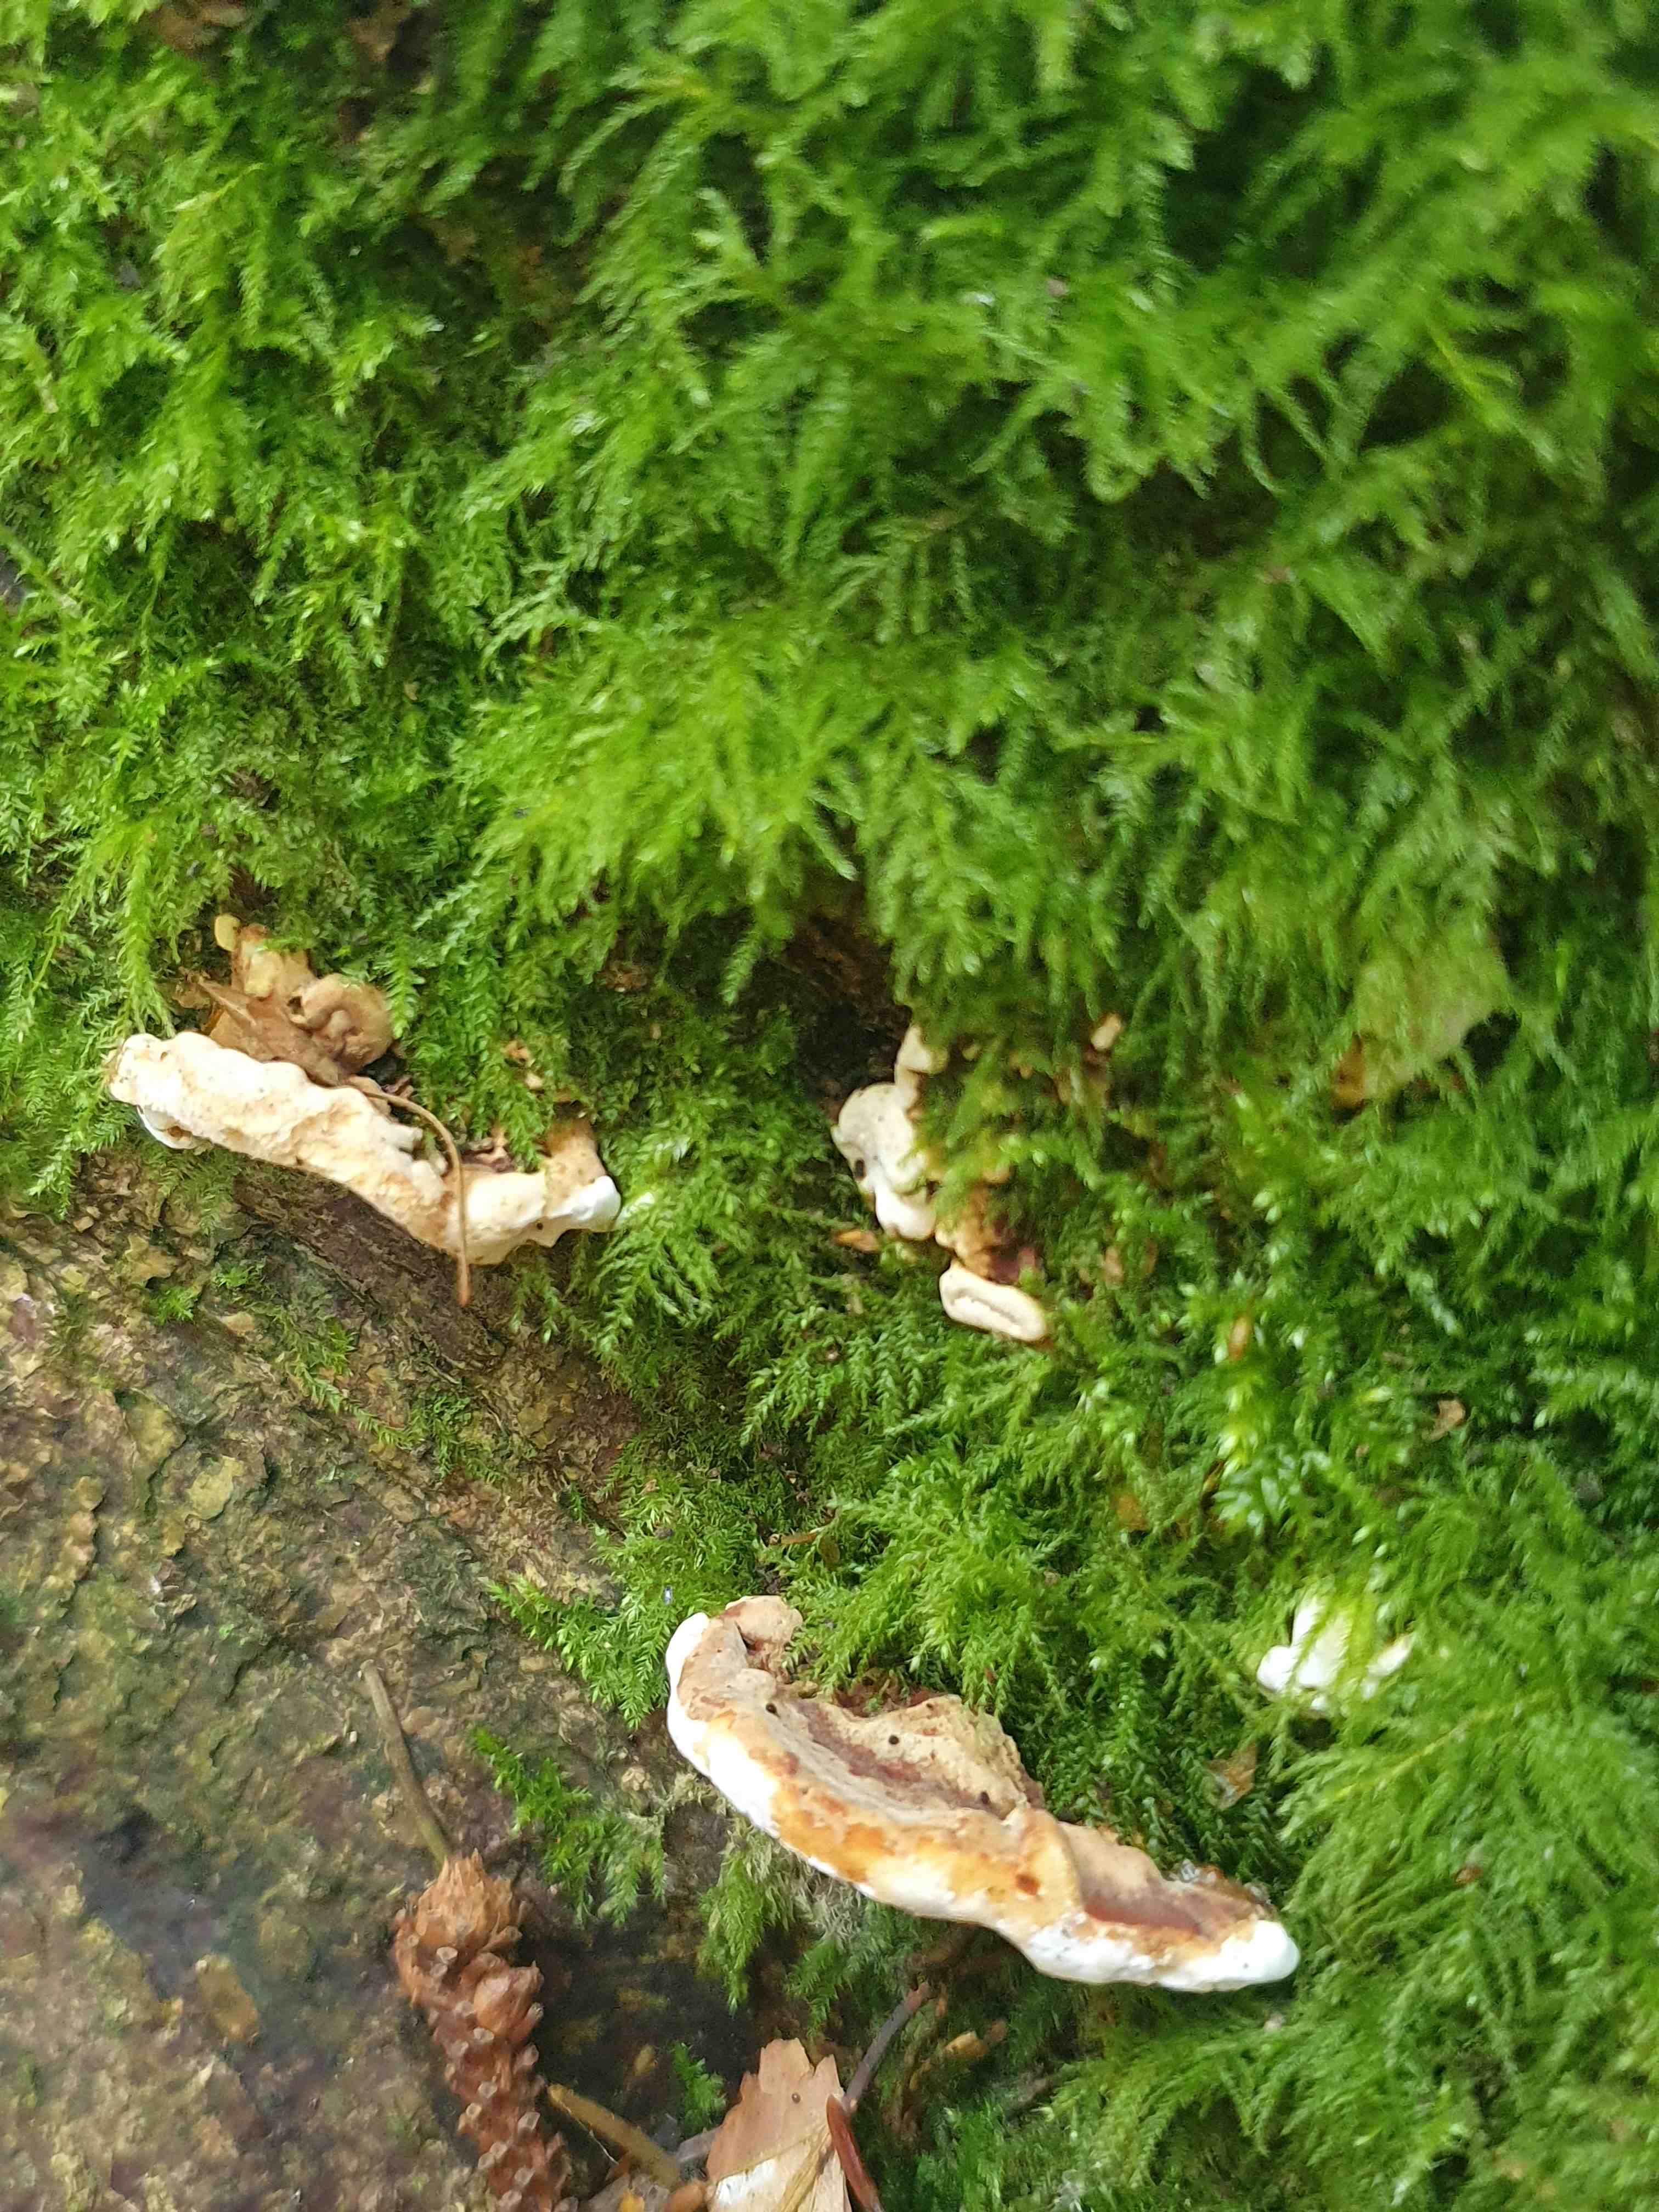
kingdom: Fungi
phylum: Basidiomycota
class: Agaricomycetes
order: Russulales
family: Bondarzewiaceae
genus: Heterobasidion
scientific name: Heterobasidion
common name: rodfordærver
